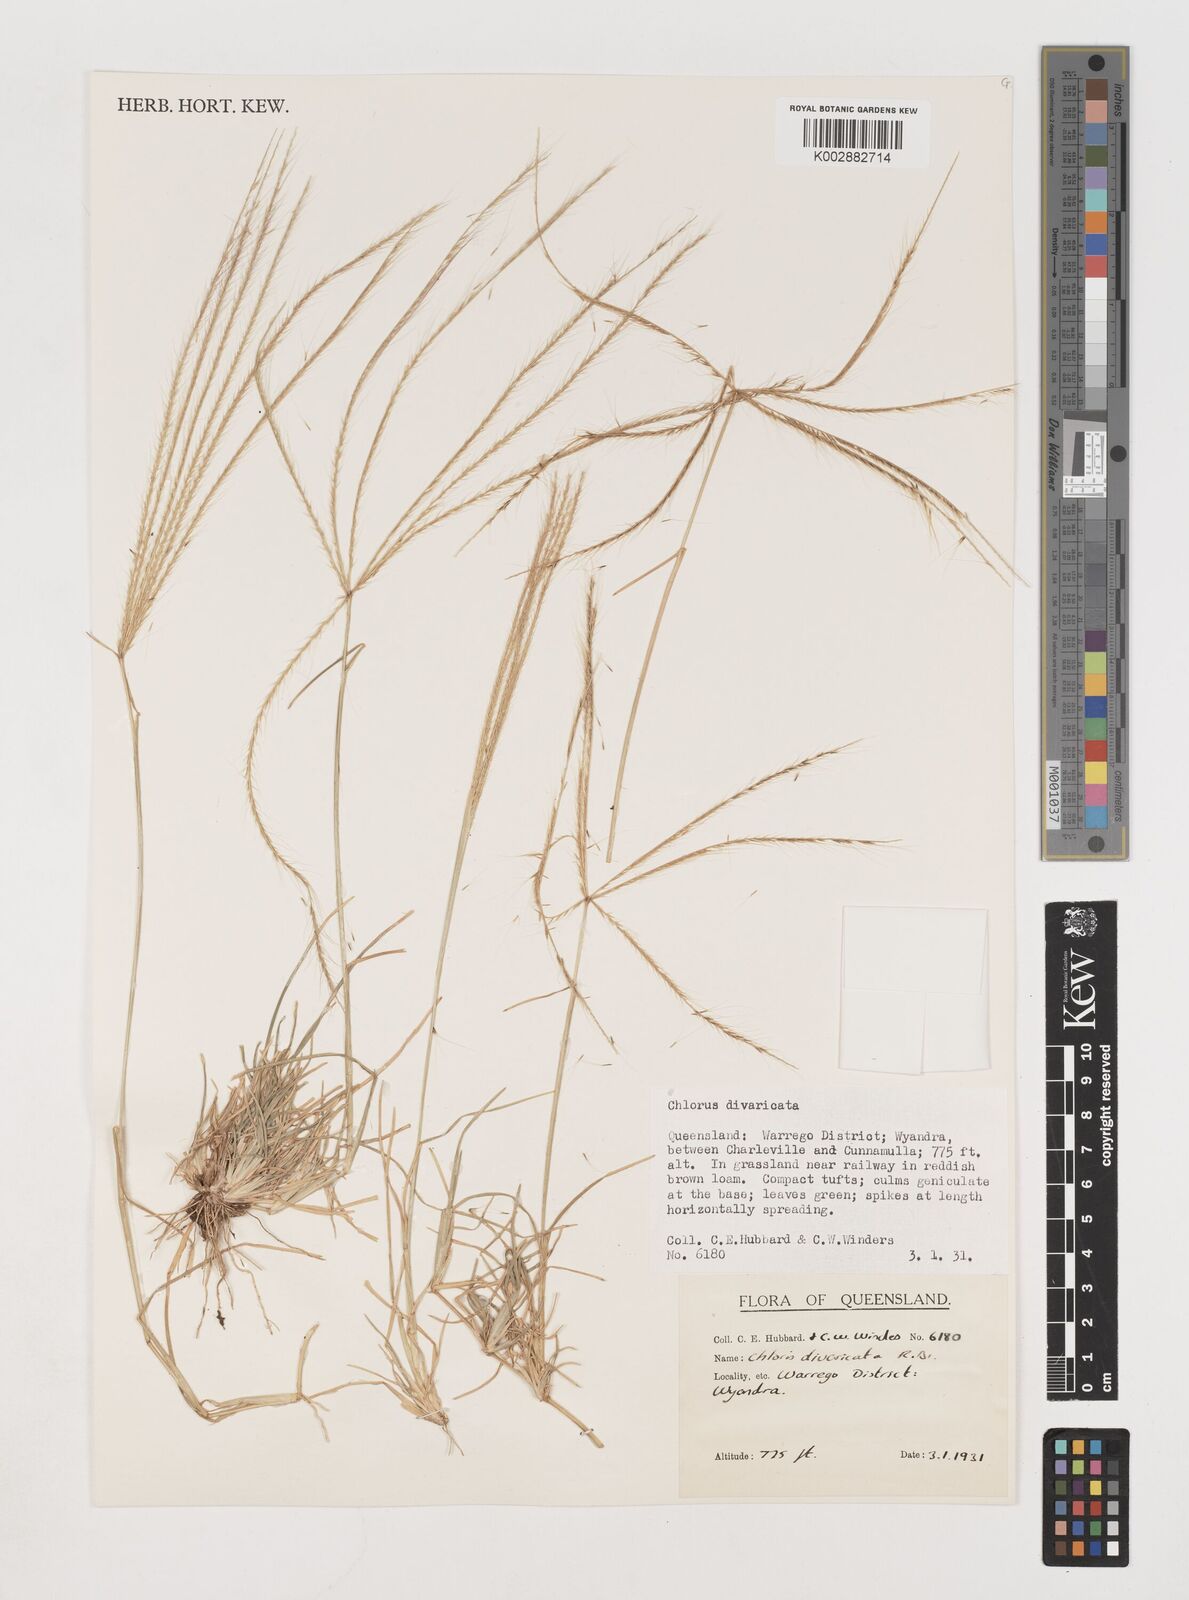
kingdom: Plantae
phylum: Tracheophyta
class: Liliopsida
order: Poales
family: Poaceae
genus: Chloris
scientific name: Chloris divaricata
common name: Spreading windmill grass
